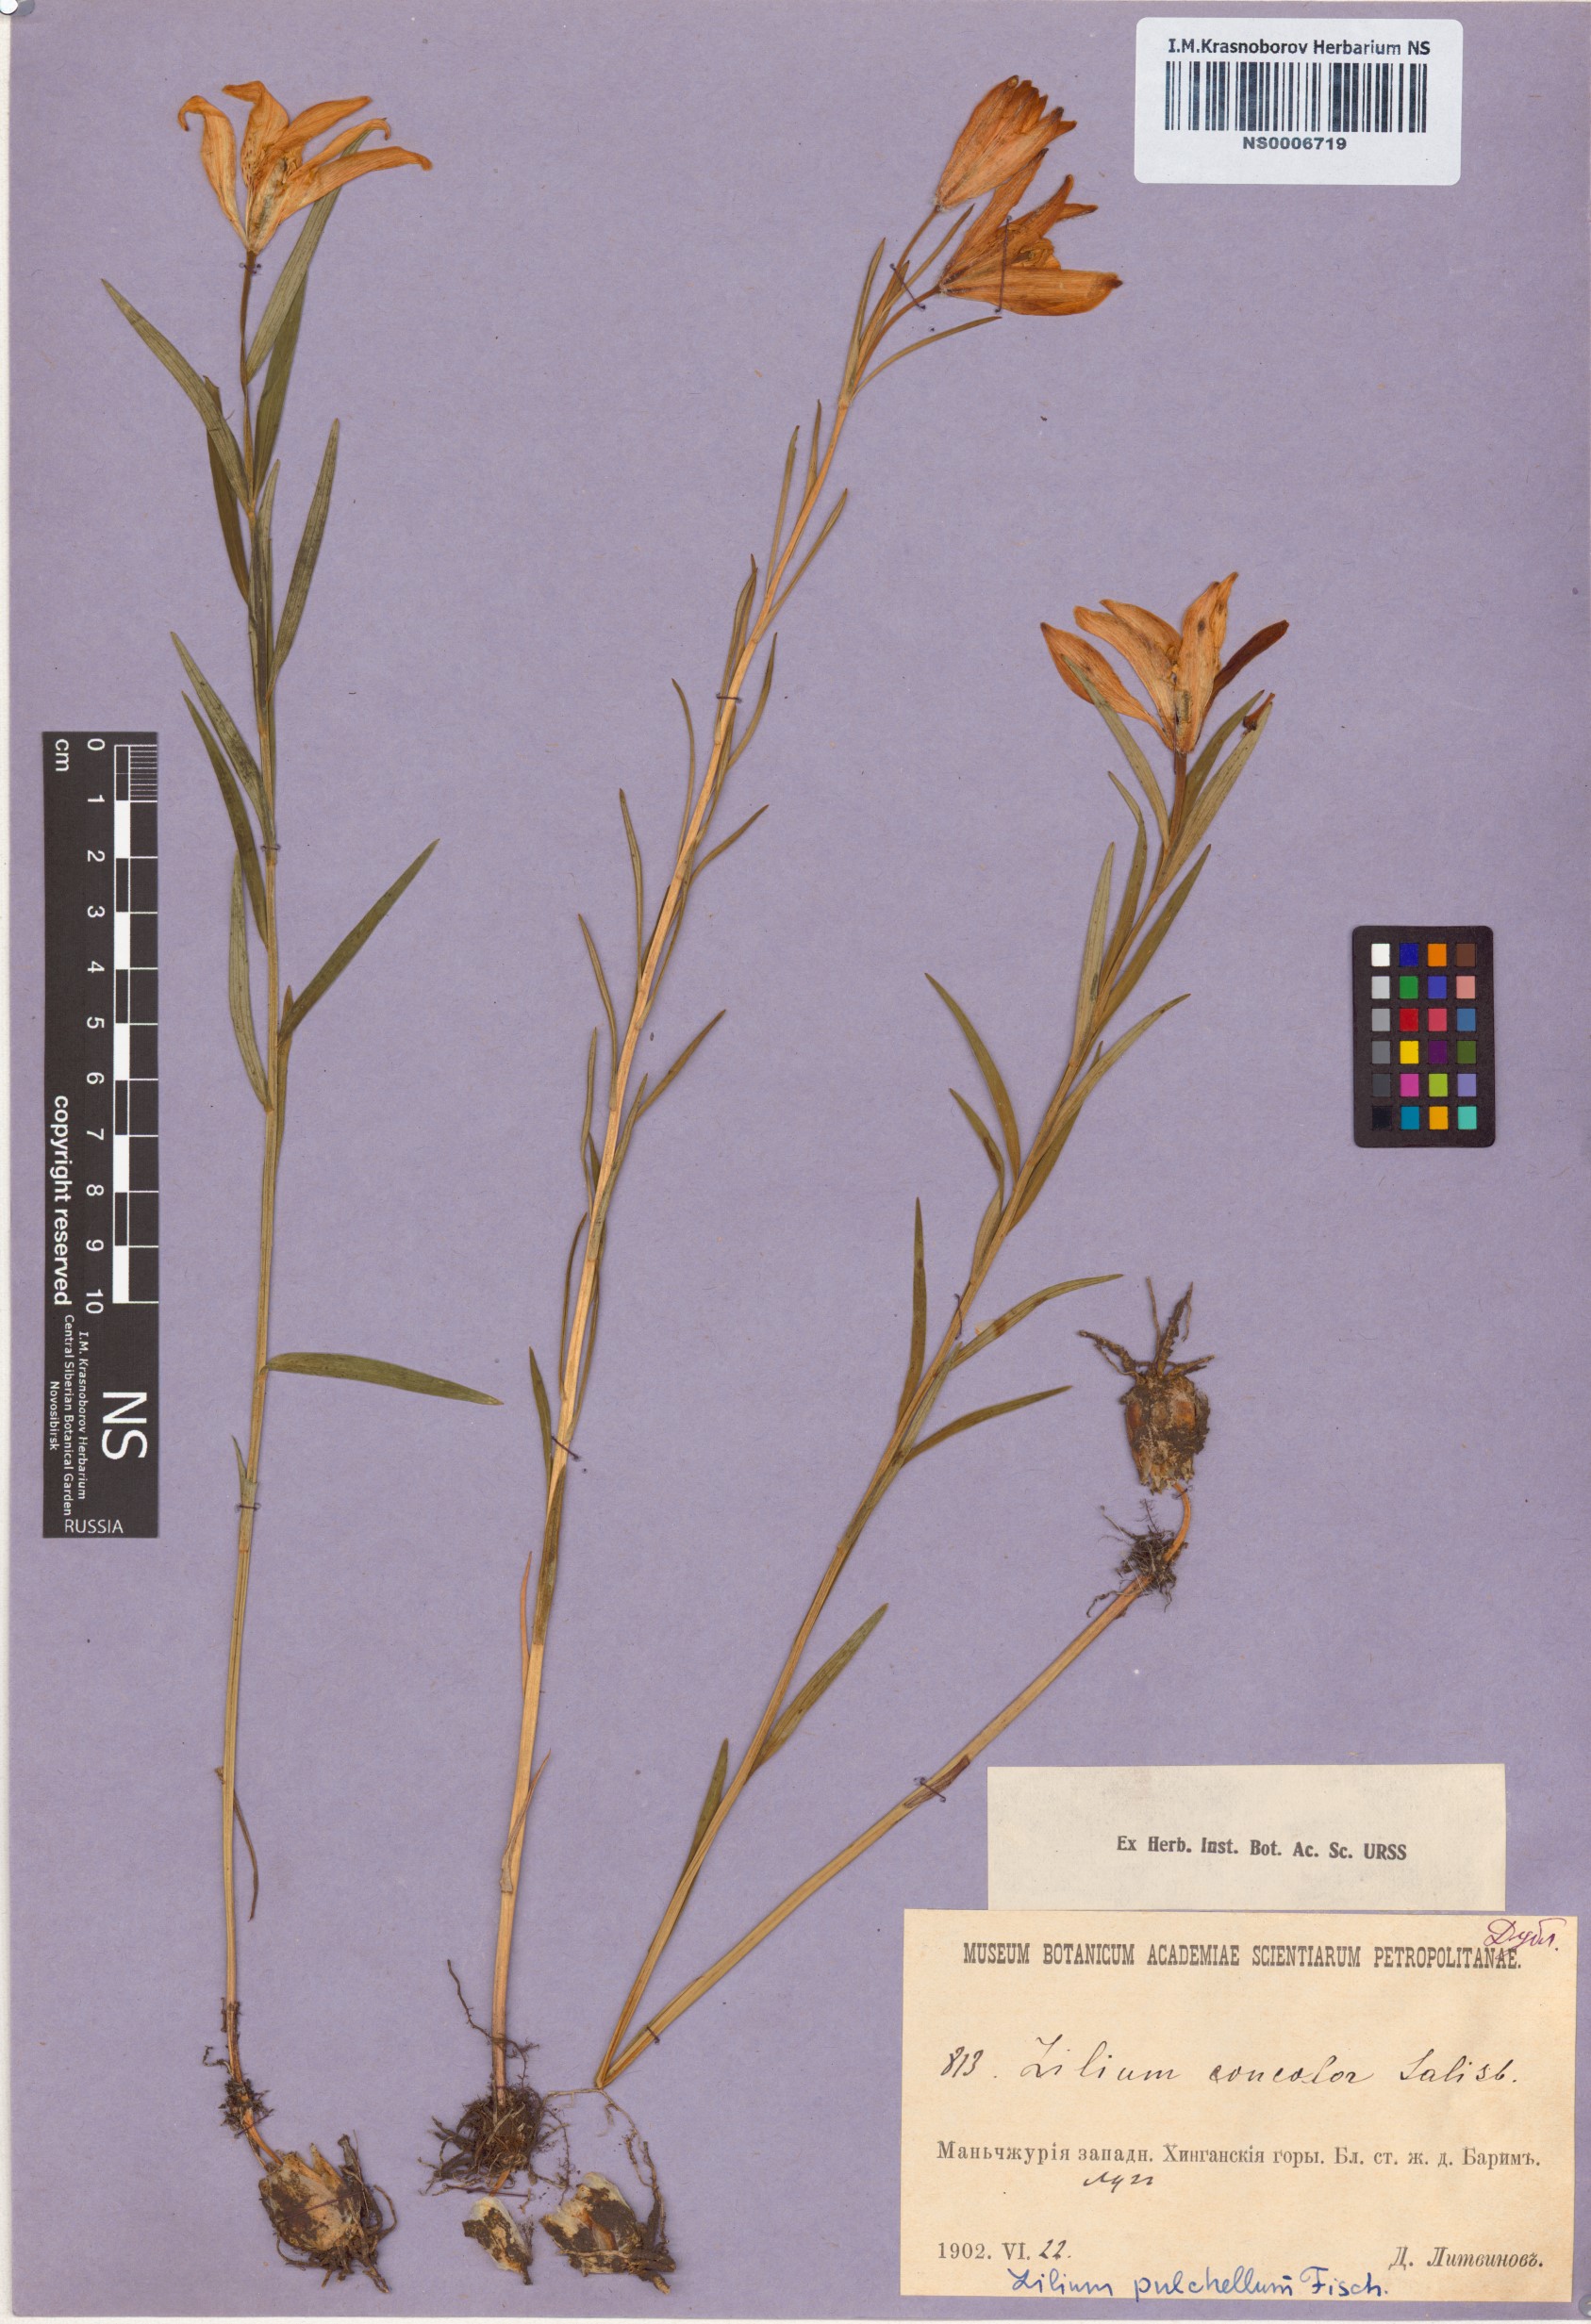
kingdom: Plantae
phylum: Tracheophyta
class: Liliopsida
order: Liliales
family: Liliaceae
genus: Lilium
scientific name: Lilium concolor
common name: Morning-star lily
